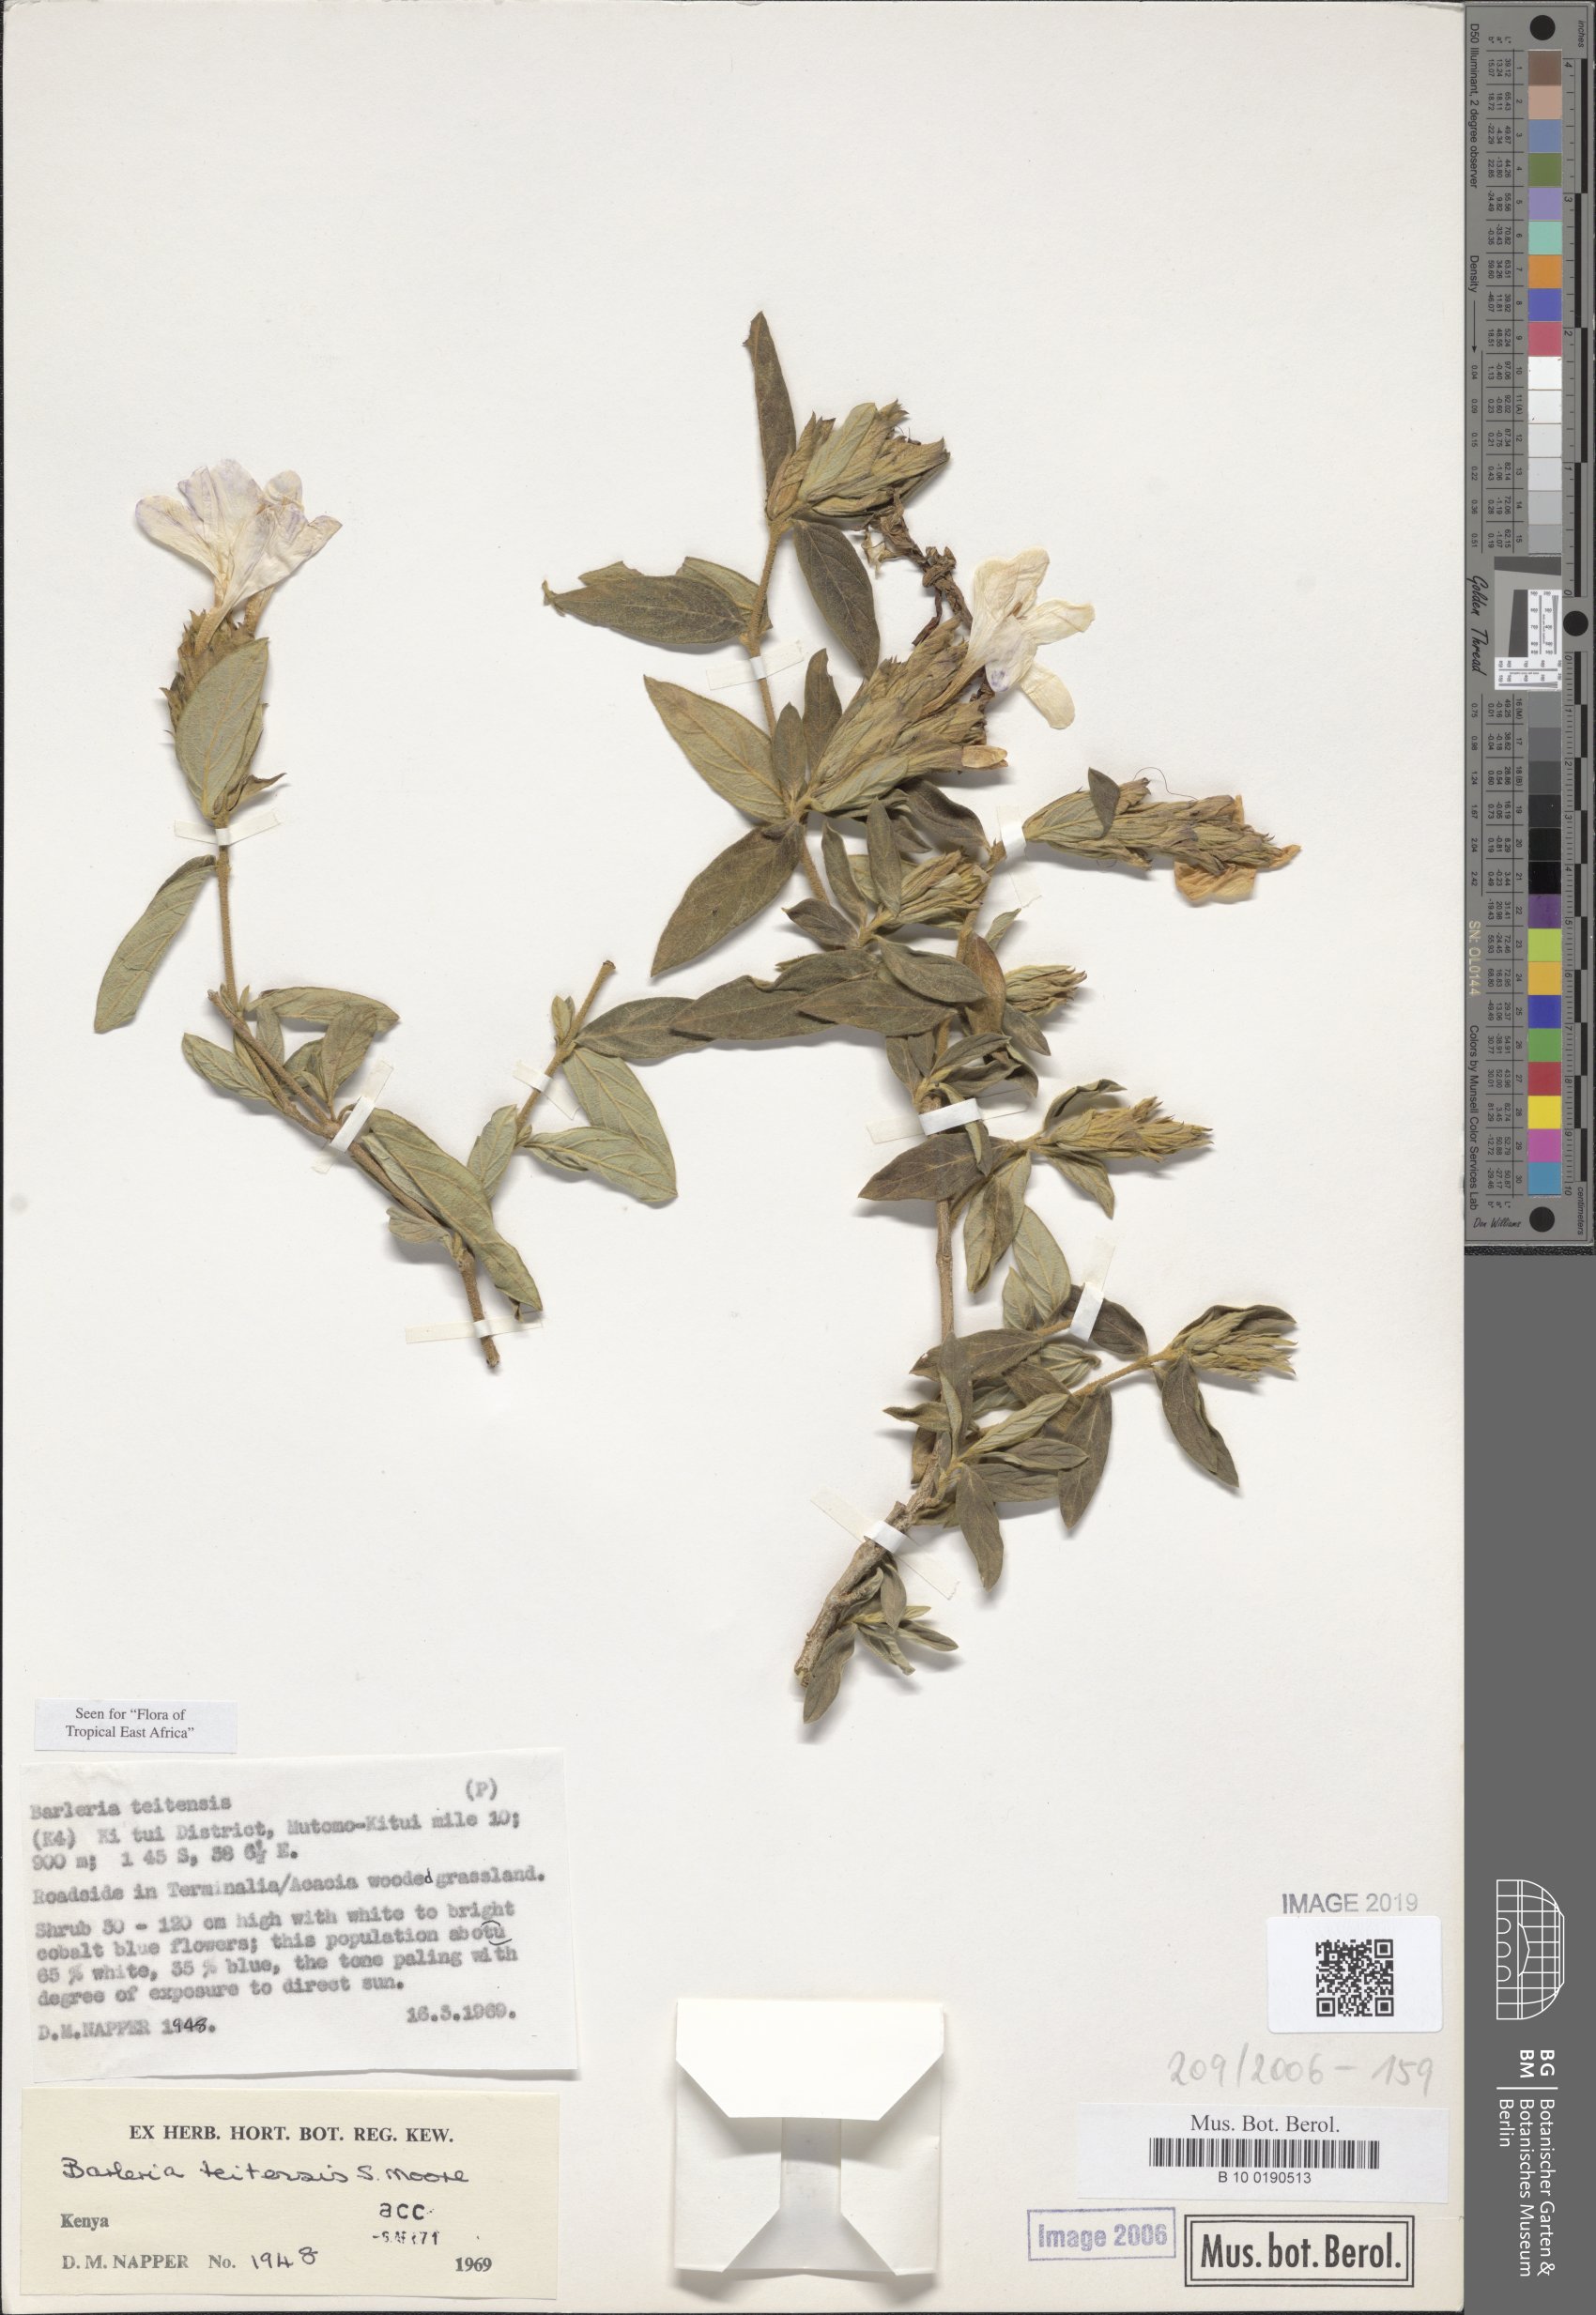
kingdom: Plantae
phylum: Tracheophyta
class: Magnoliopsida
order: Lamiales
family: Acanthaceae
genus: Barleria
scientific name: Barleria taitensis
